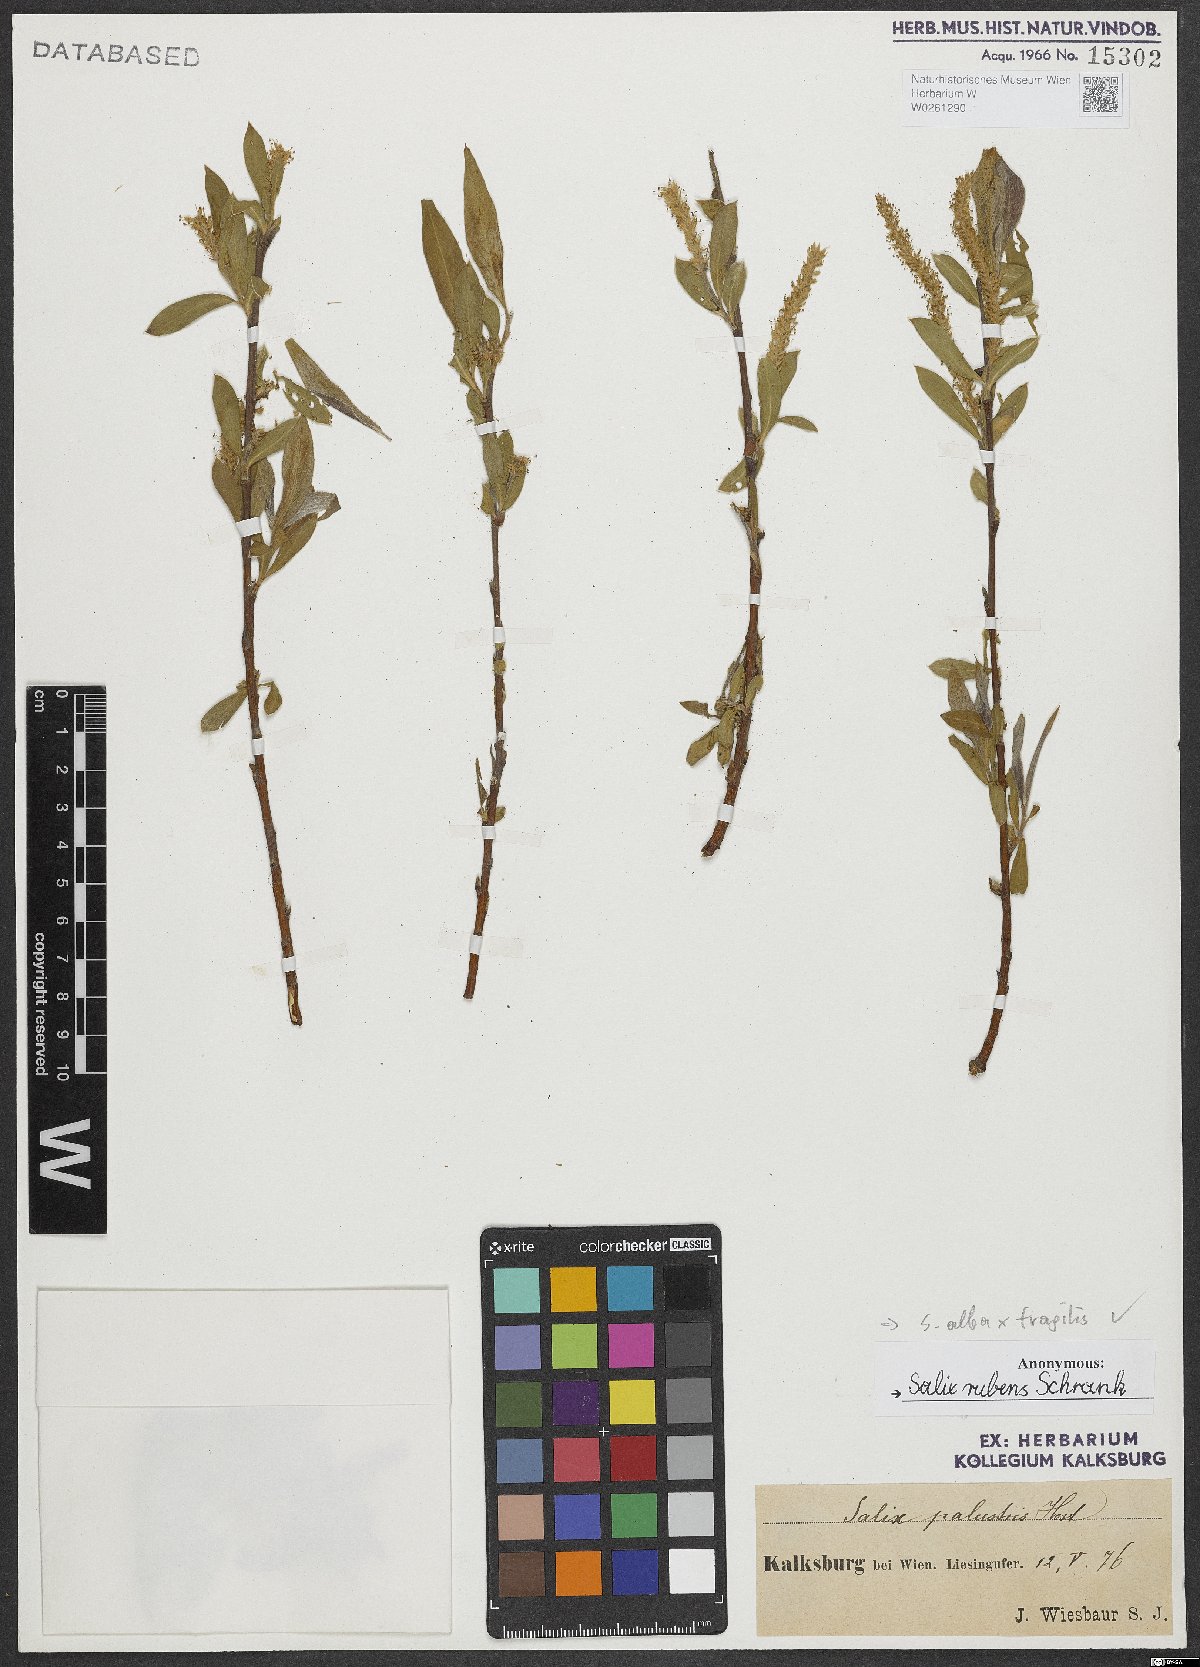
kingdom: Plantae
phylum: Tracheophyta
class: Magnoliopsida
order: Malpighiales
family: Salicaceae
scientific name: Salicaceae
